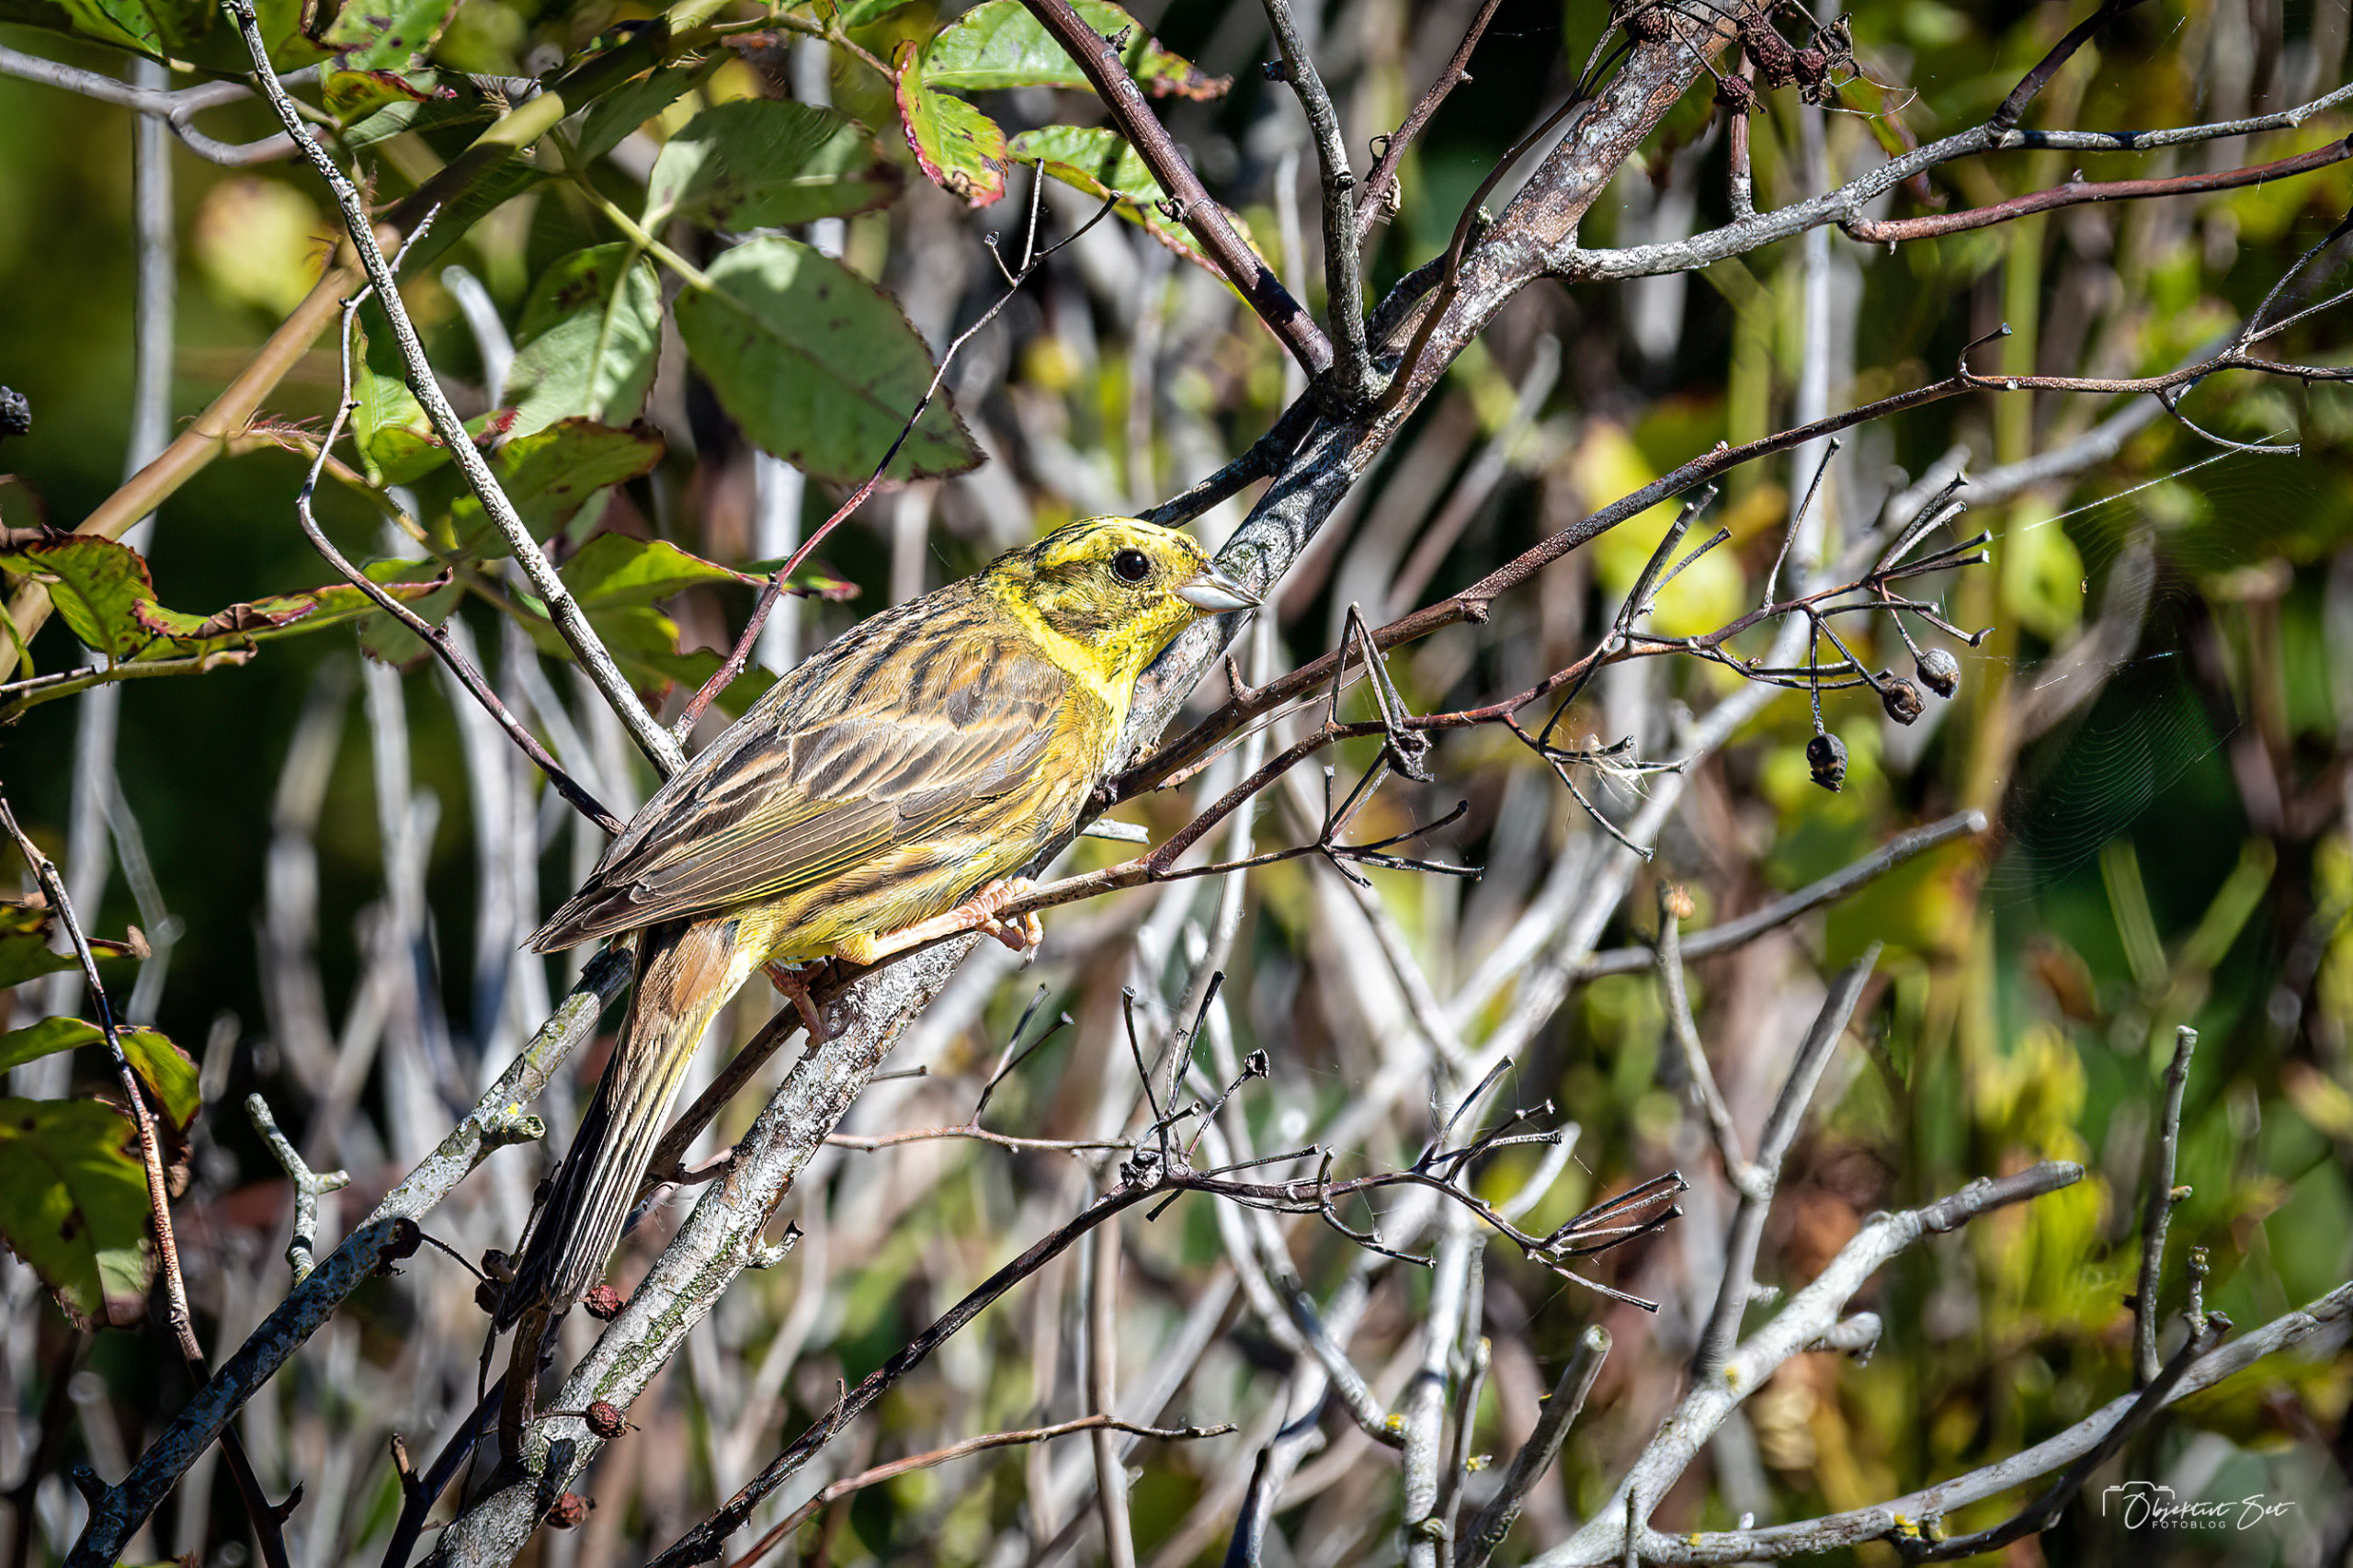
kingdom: Animalia
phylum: Chordata
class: Aves
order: Passeriformes
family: Emberizidae
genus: Emberiza
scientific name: Emberiza citrinella
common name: Gulspurv
